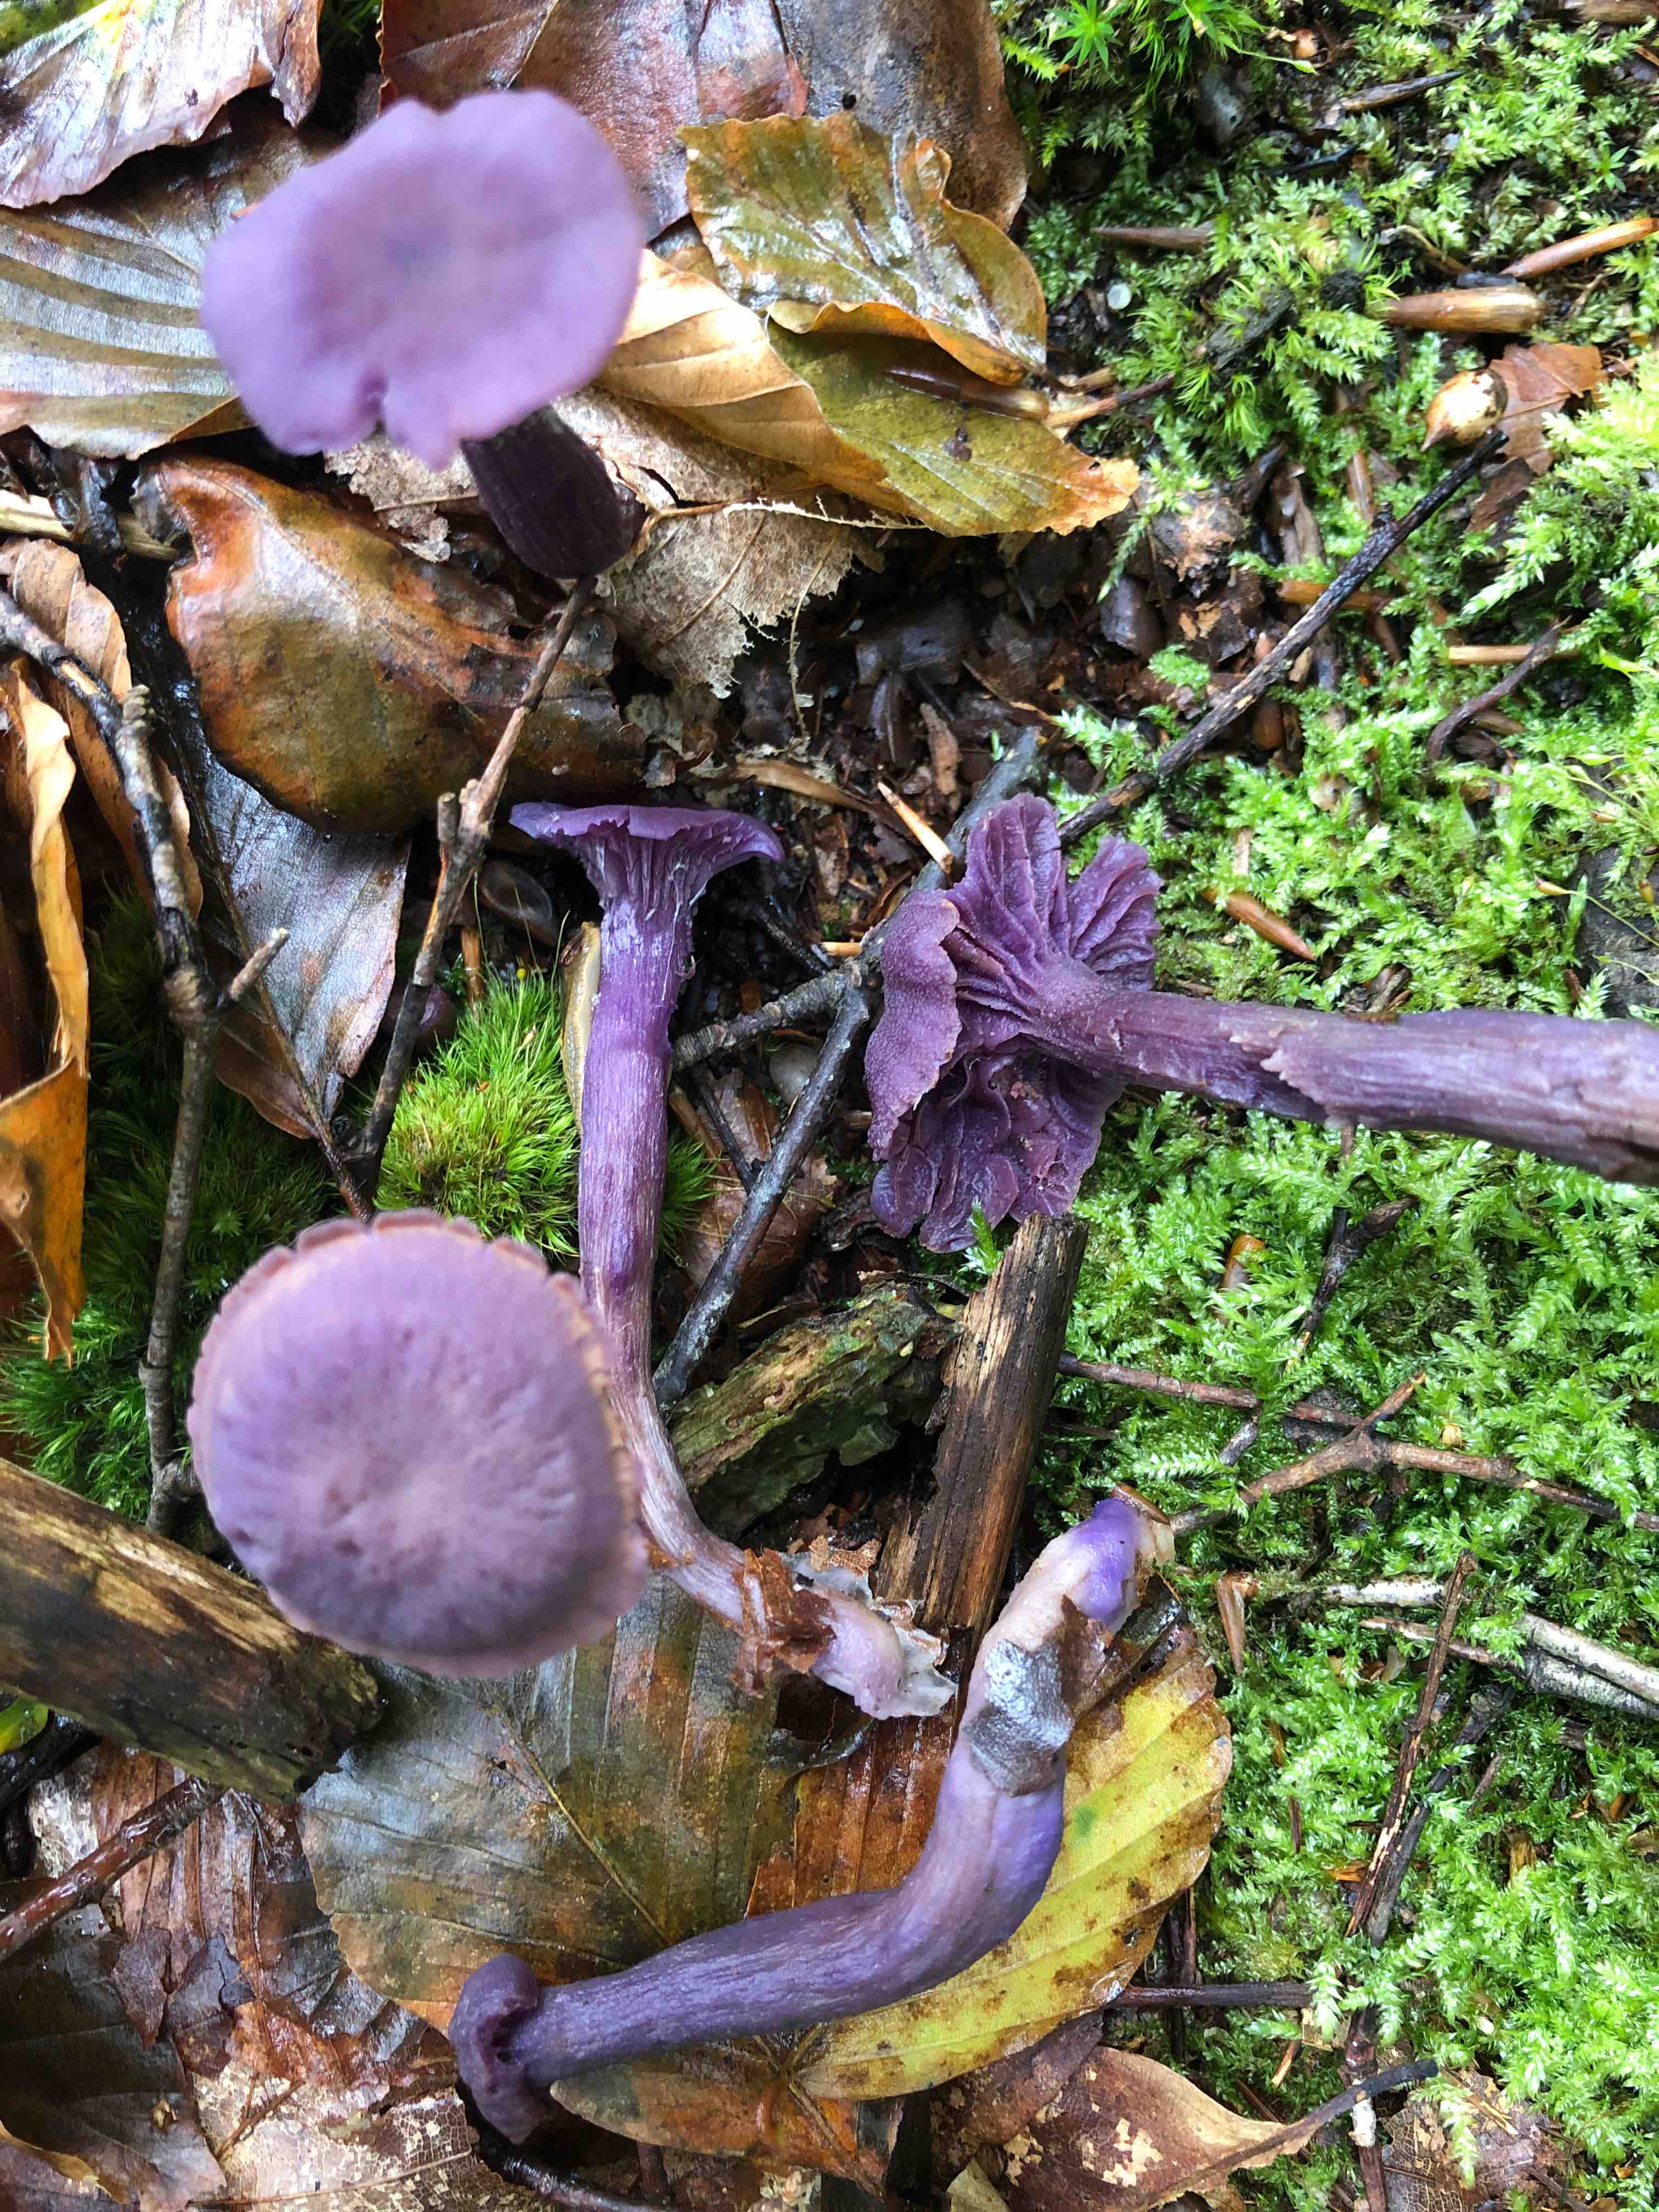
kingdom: Fungi
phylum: Basidiomycota
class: Agaricomycetes
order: Agaricales
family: Hydnangiaceae
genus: Laccaria
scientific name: Laccaria amethystina
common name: violet ametysthat
